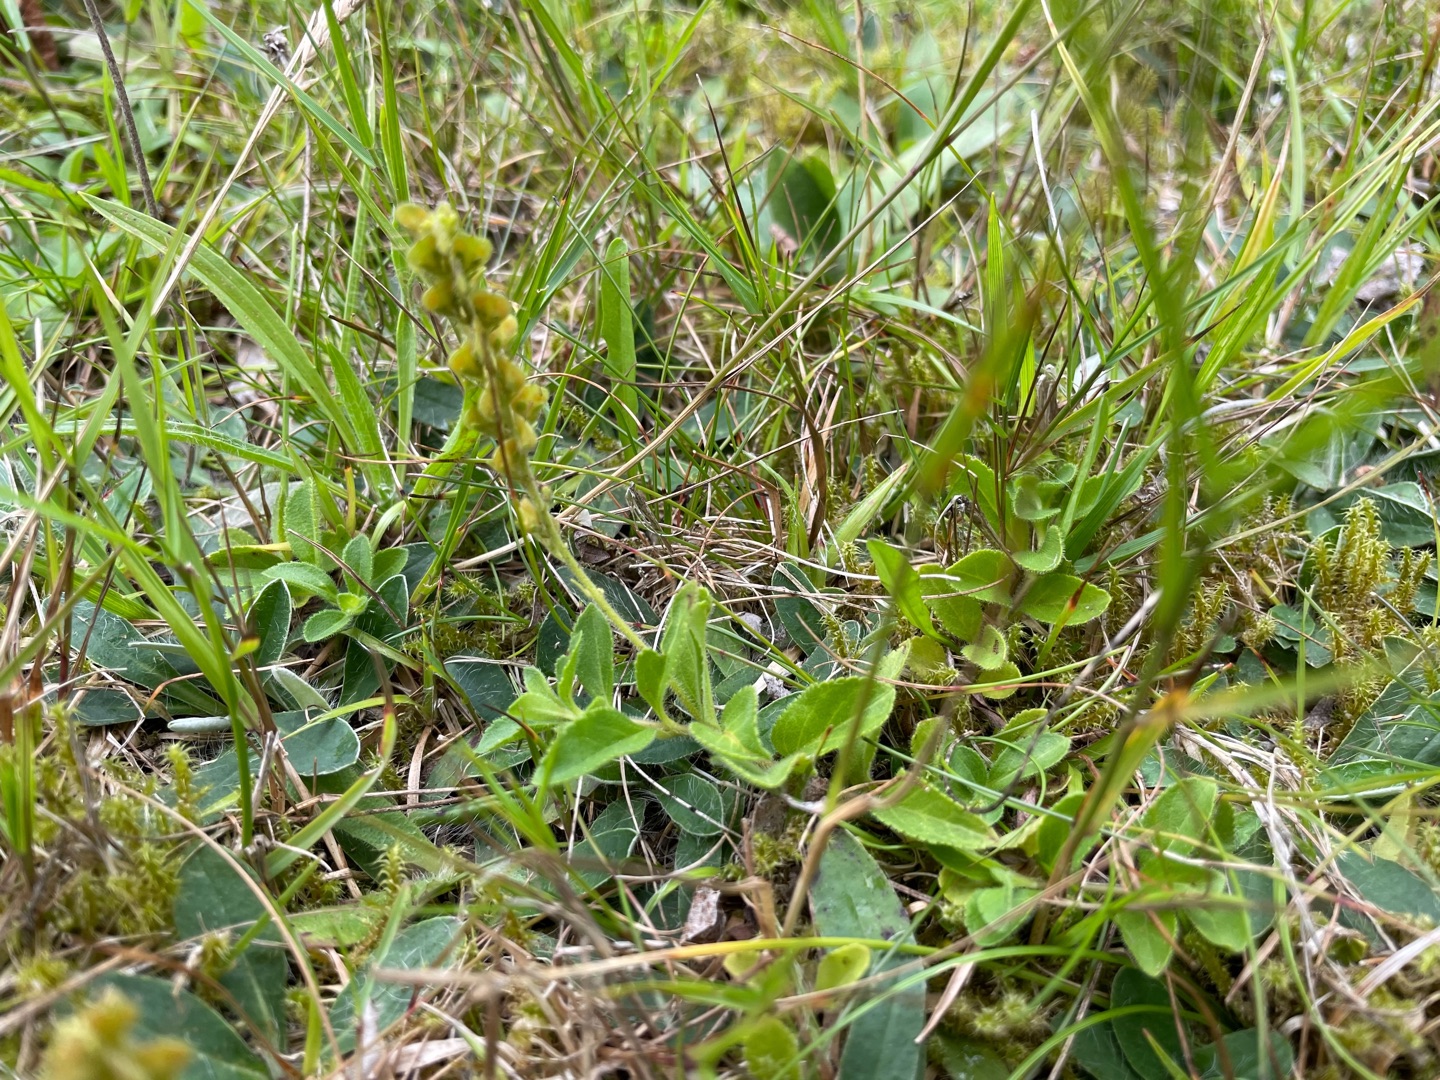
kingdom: Plantae
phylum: Tracheophyta
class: Magnoliopsida
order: Lamiales
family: Plantaginaceae
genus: Veronica
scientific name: Veronica officinalis
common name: Læge-ærenpris
